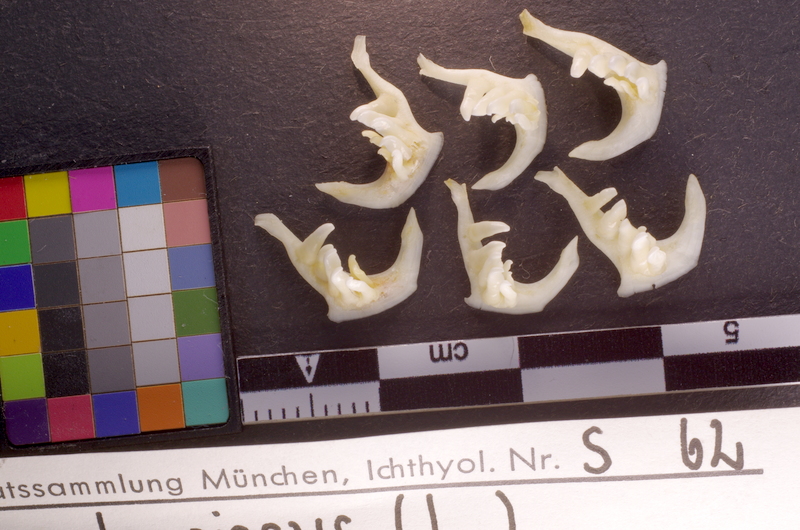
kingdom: Animalia
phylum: Chordata
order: Cypriniformes
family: Cyprinidae
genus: Leuciscus
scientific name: Leuciscus leuciscus
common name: Dace
